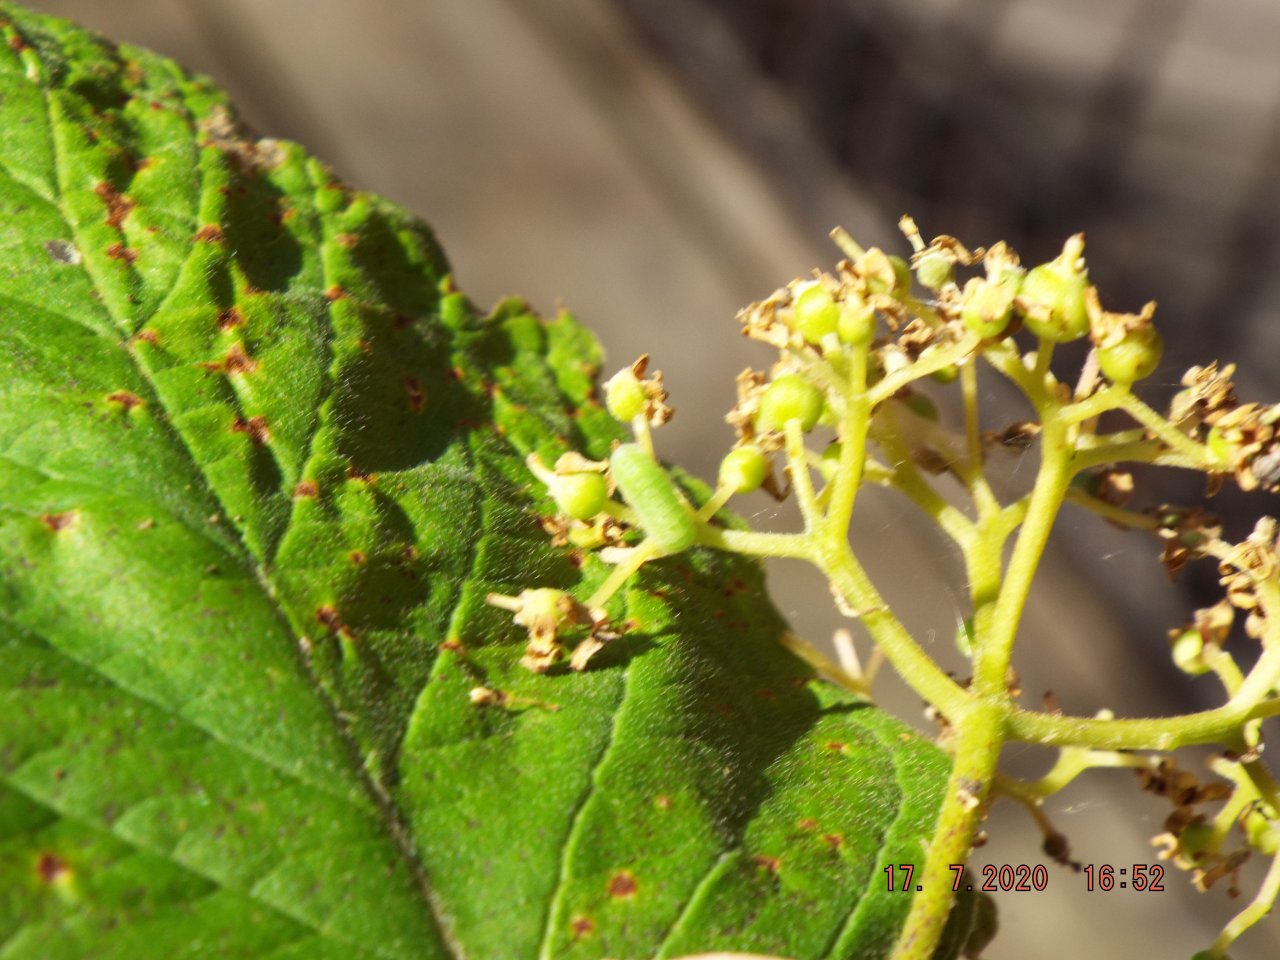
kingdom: Animalia
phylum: Arthropoda
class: Insecta
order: Lepidoptera
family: Lycaenidae
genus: Celastrina
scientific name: Celastrina lucia
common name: Northern Spring Azure
